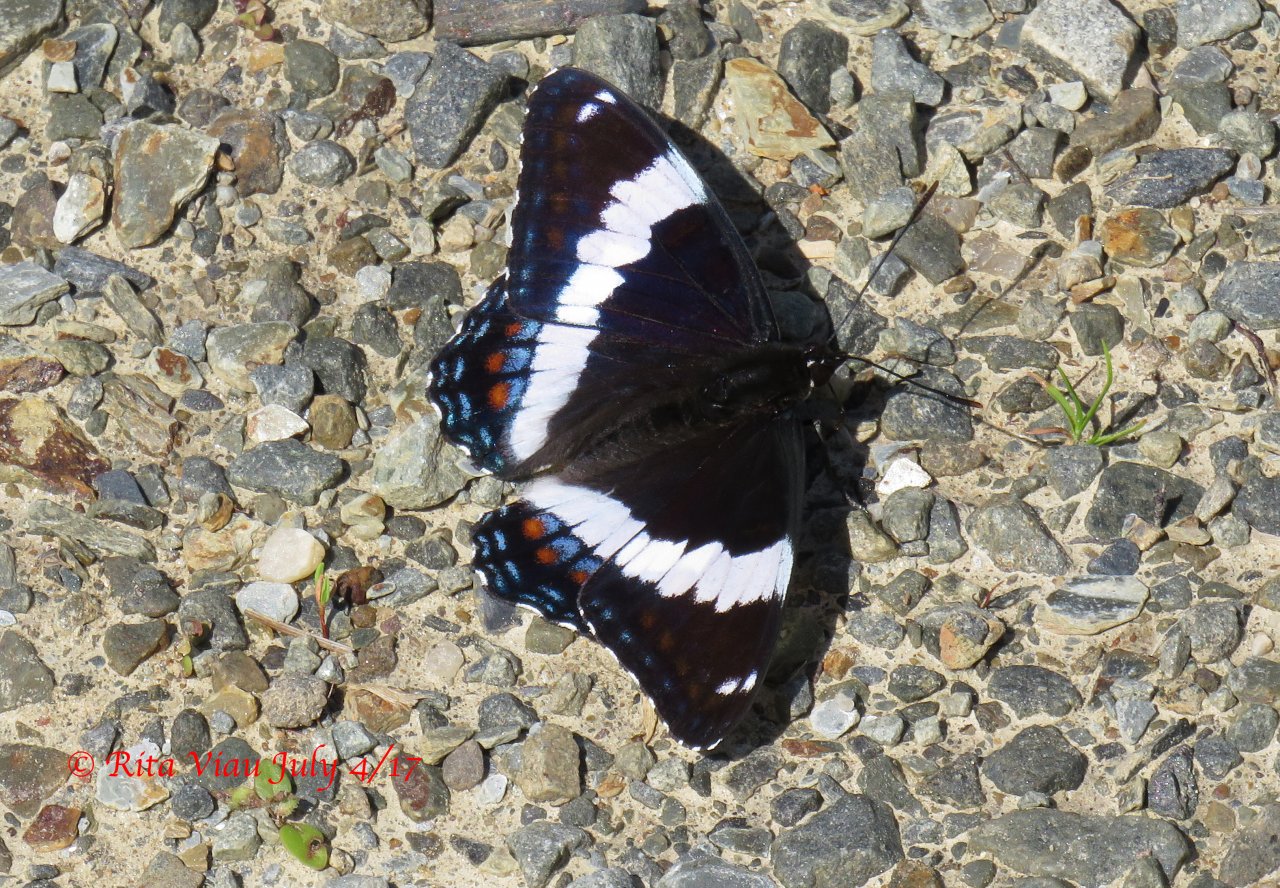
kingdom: Animalia
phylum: Arthropoda
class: Insecta
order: Lepidoptera
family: Nymphalidae
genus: Limenitis
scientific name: Limenitis arthemis
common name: Red-spotted Admiral
